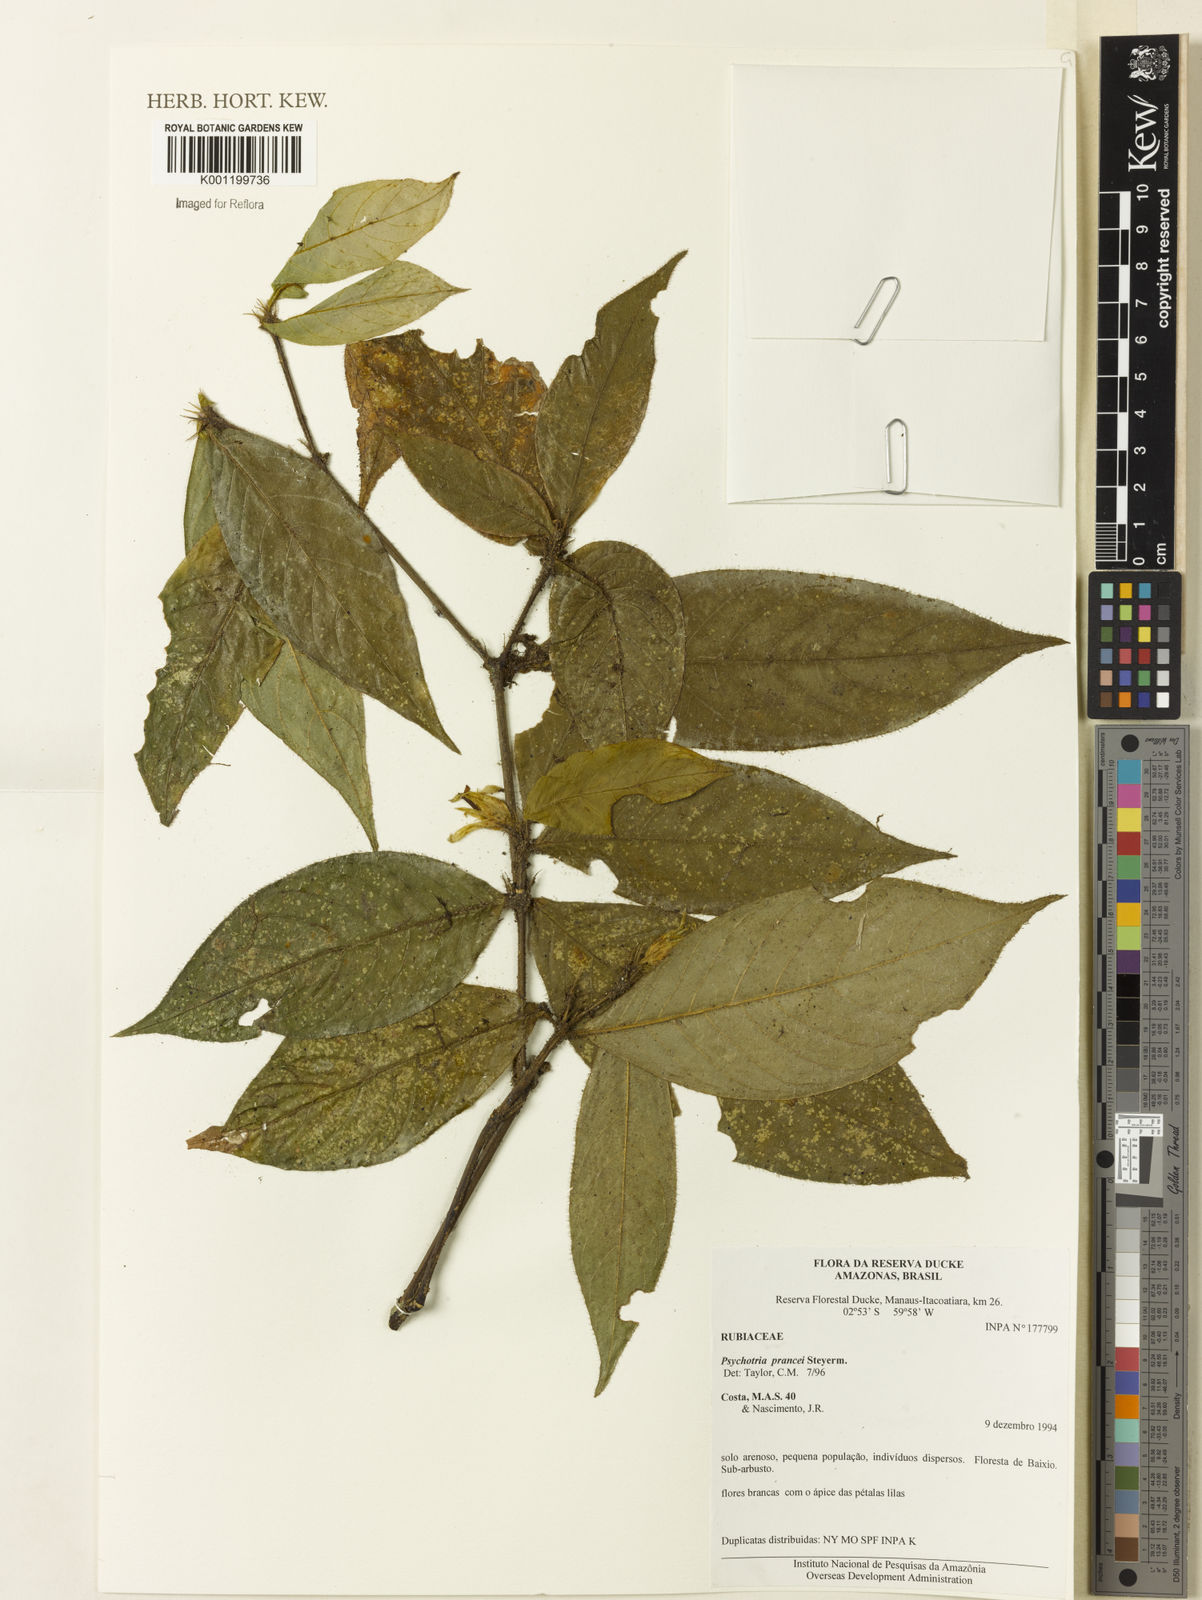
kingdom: Plantae
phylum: Tracheophyta
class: Magnoliopsida
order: Gentianales
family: Rubiaceae
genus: Palicourea
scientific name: Palicourea prancei
